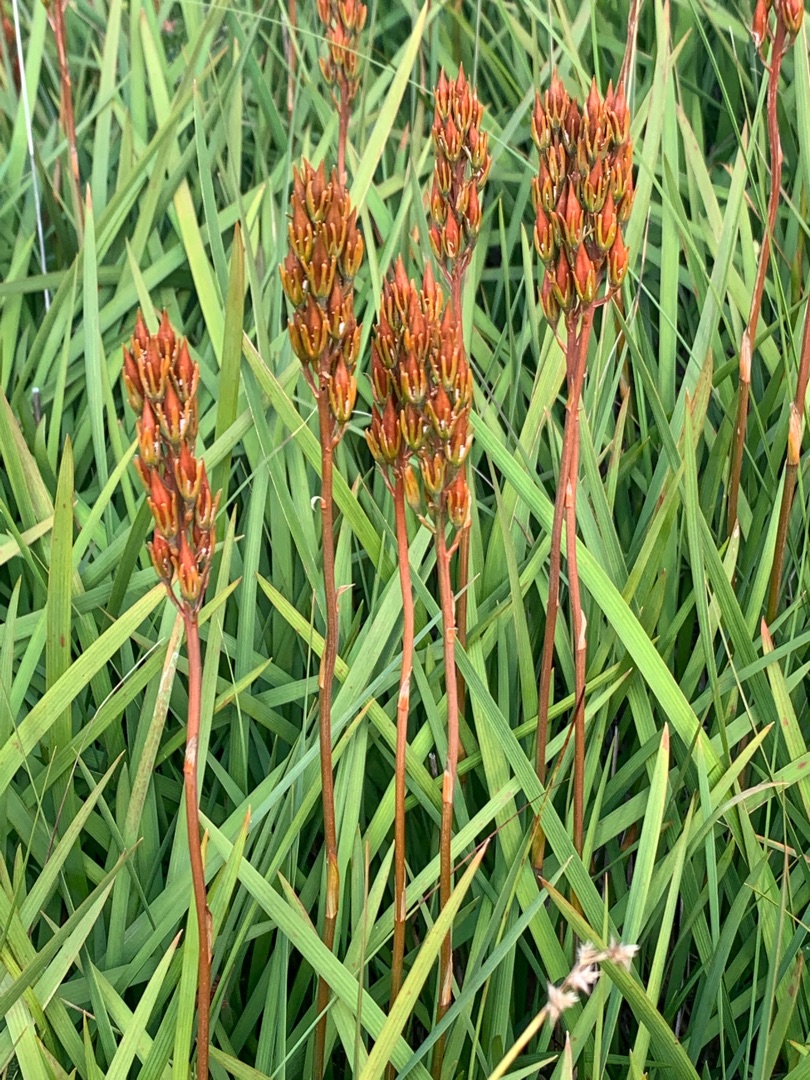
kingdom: Plantae
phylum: Tracheophyta
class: Liliopsida
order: Dioscoreales
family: Nartheciaceae
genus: Narthecium
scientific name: Narthecium ossifragum
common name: Benbræk
